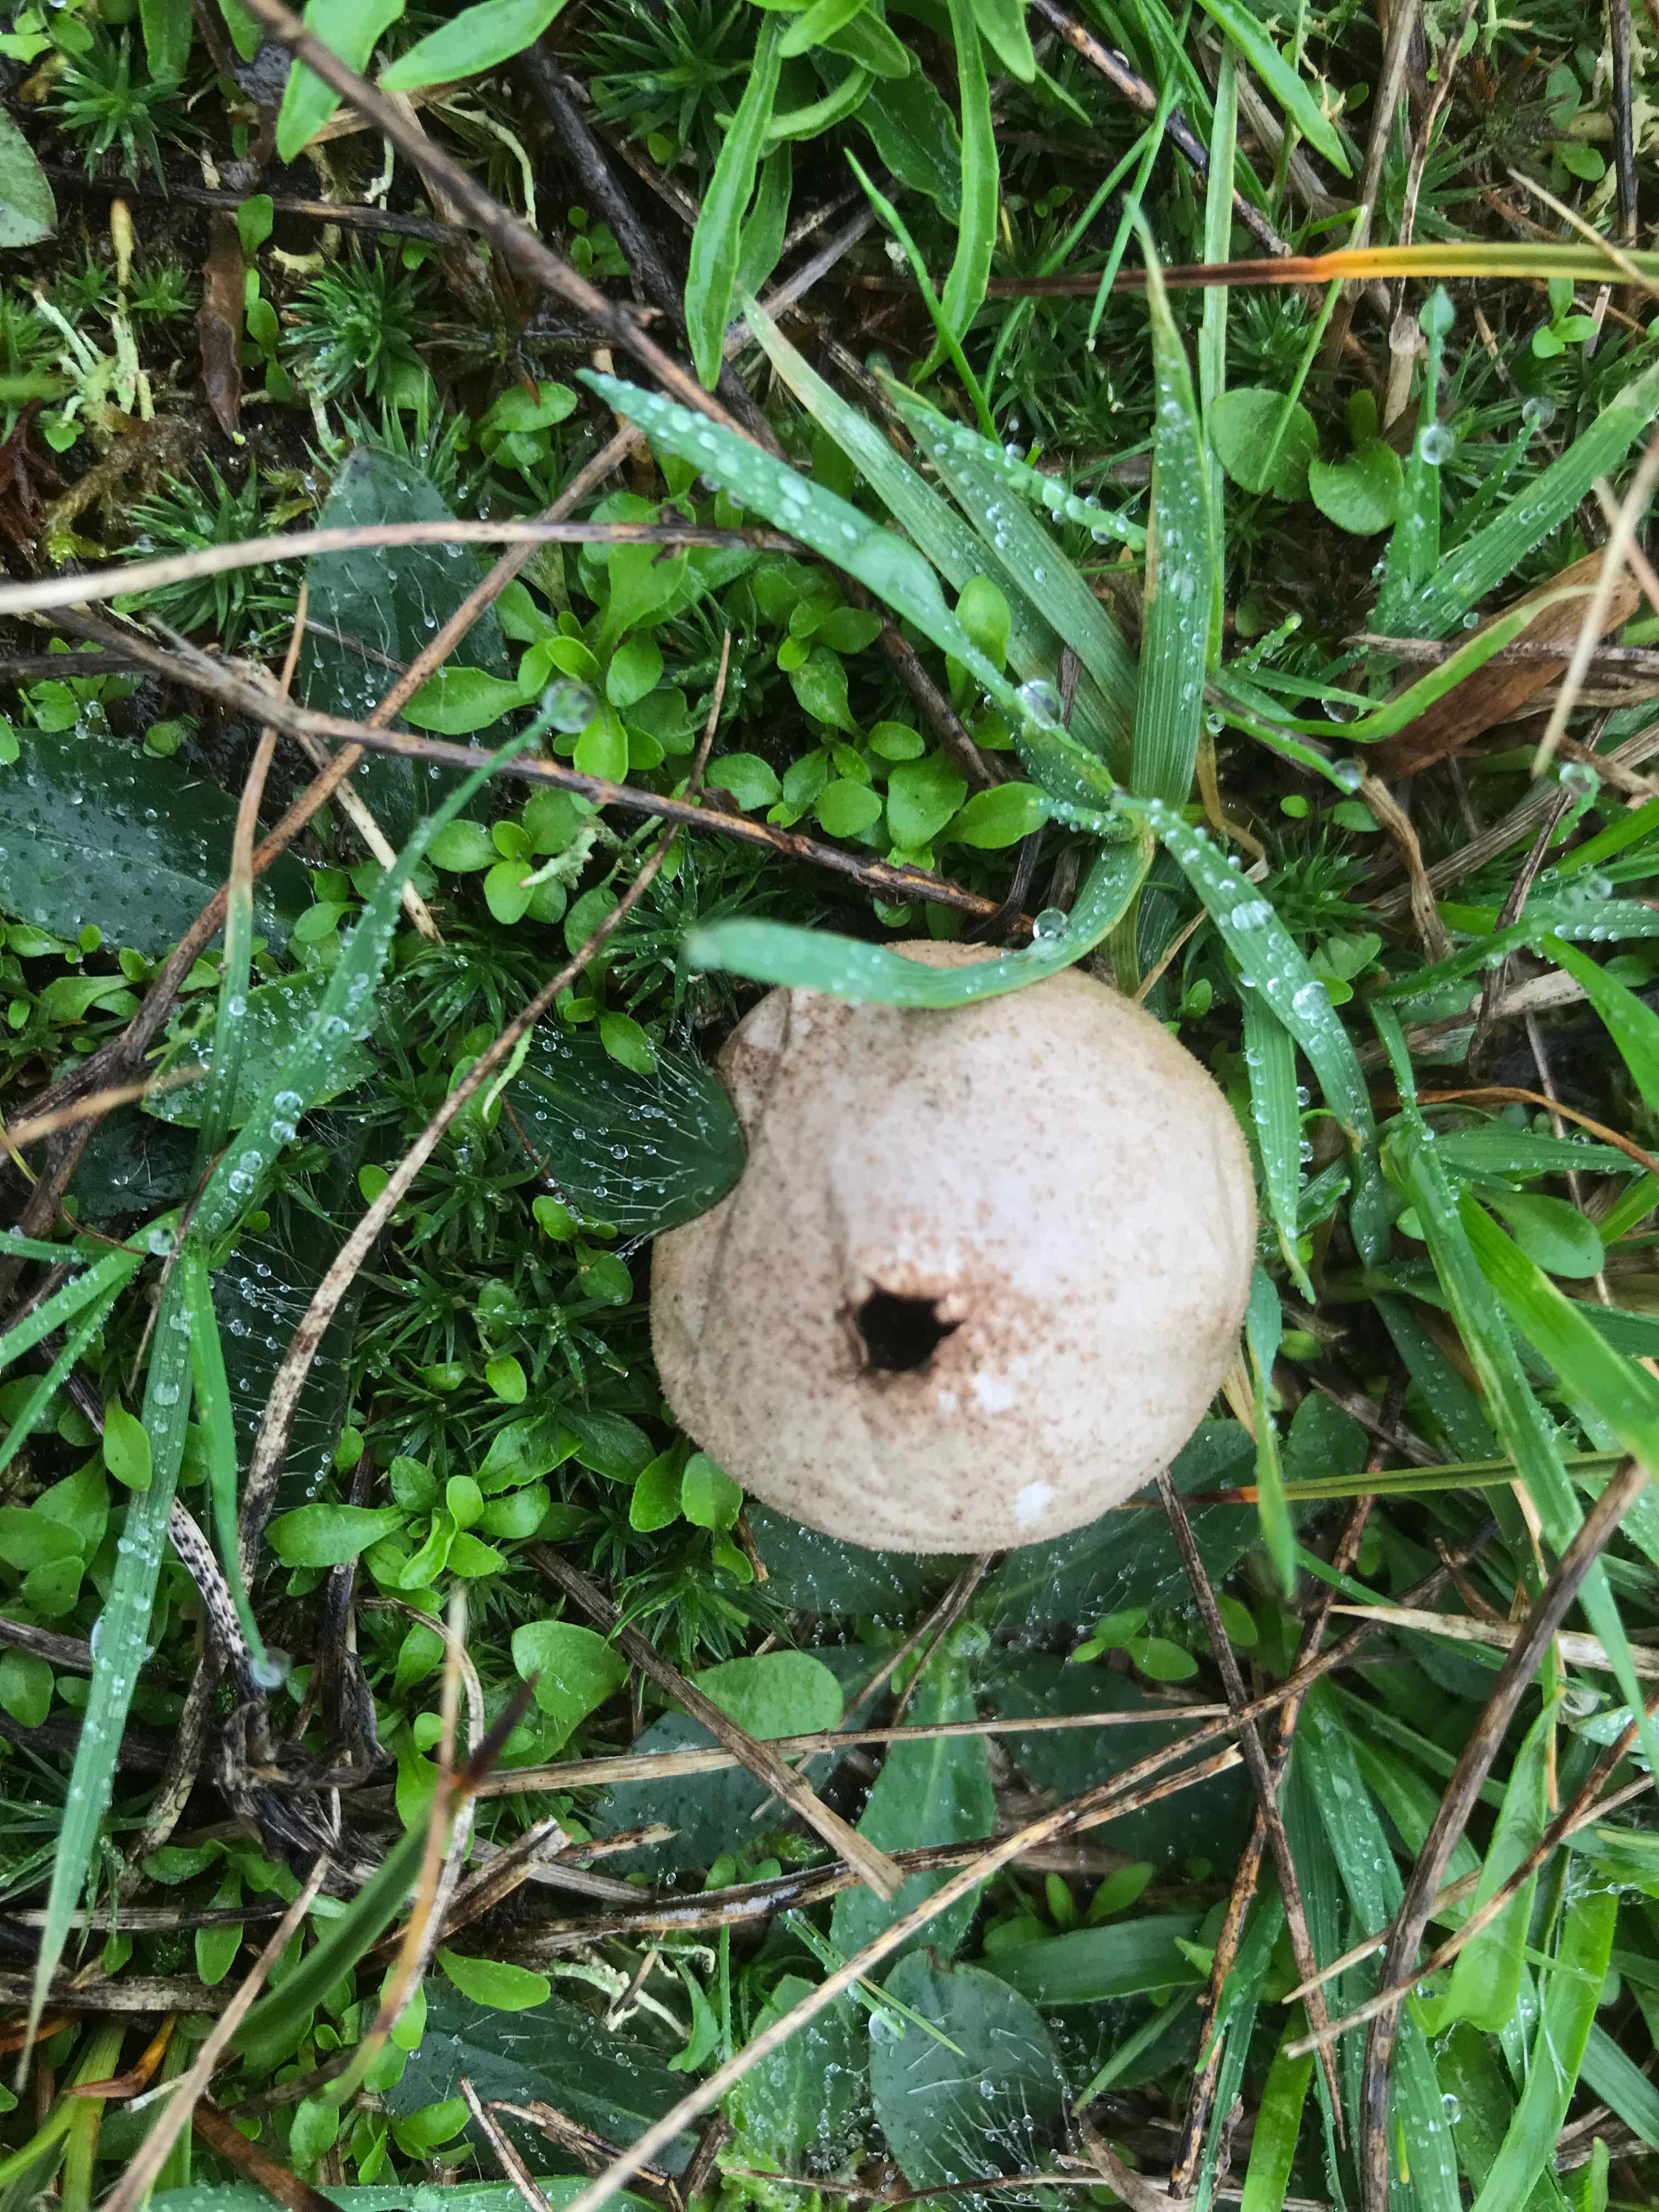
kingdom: Fungi
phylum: Basidiomycota
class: Agaricomycetes
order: Agaricales
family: Agaricaceae
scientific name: Agaricaceae
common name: champignonfamilien
